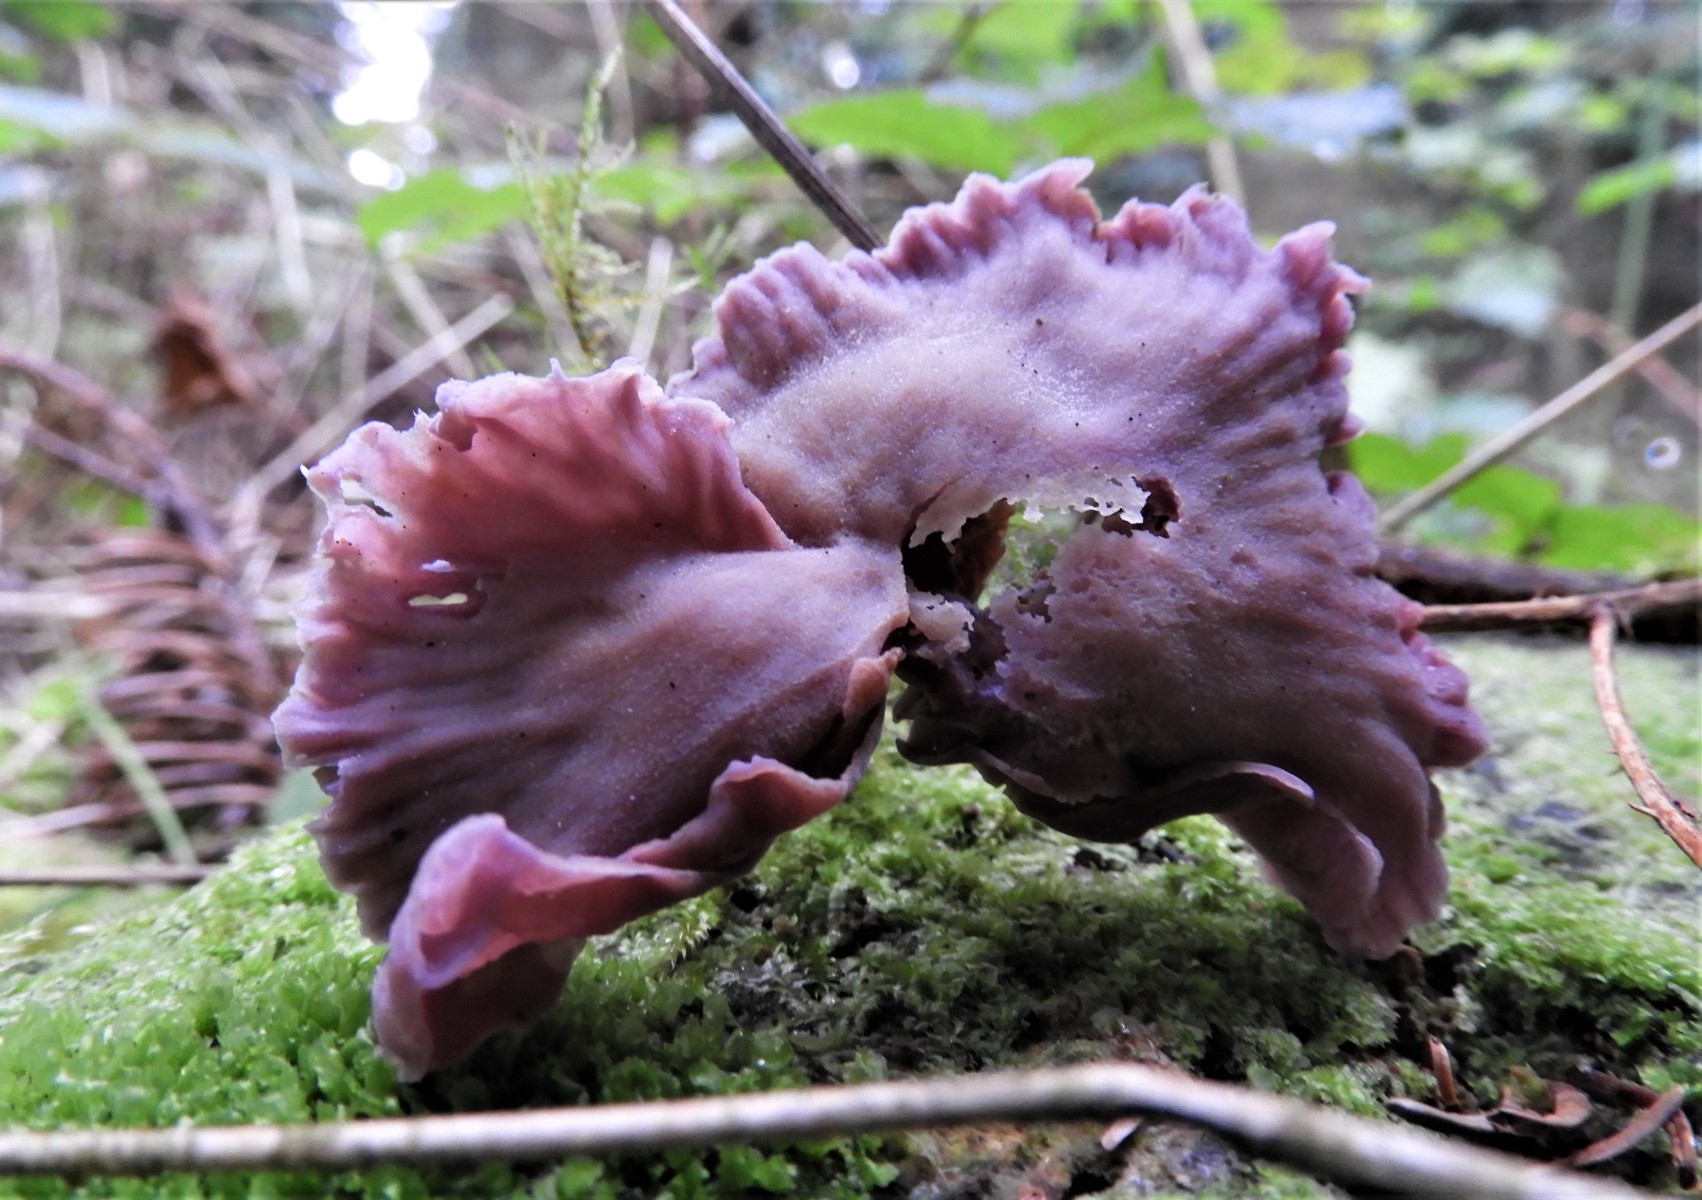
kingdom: Fungi
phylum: Basidiomycota
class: Agaricomycetes
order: Agaricales
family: Hydnangiaceae
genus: Laccaria
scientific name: Laccaria amethystina
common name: violet ametysthat
